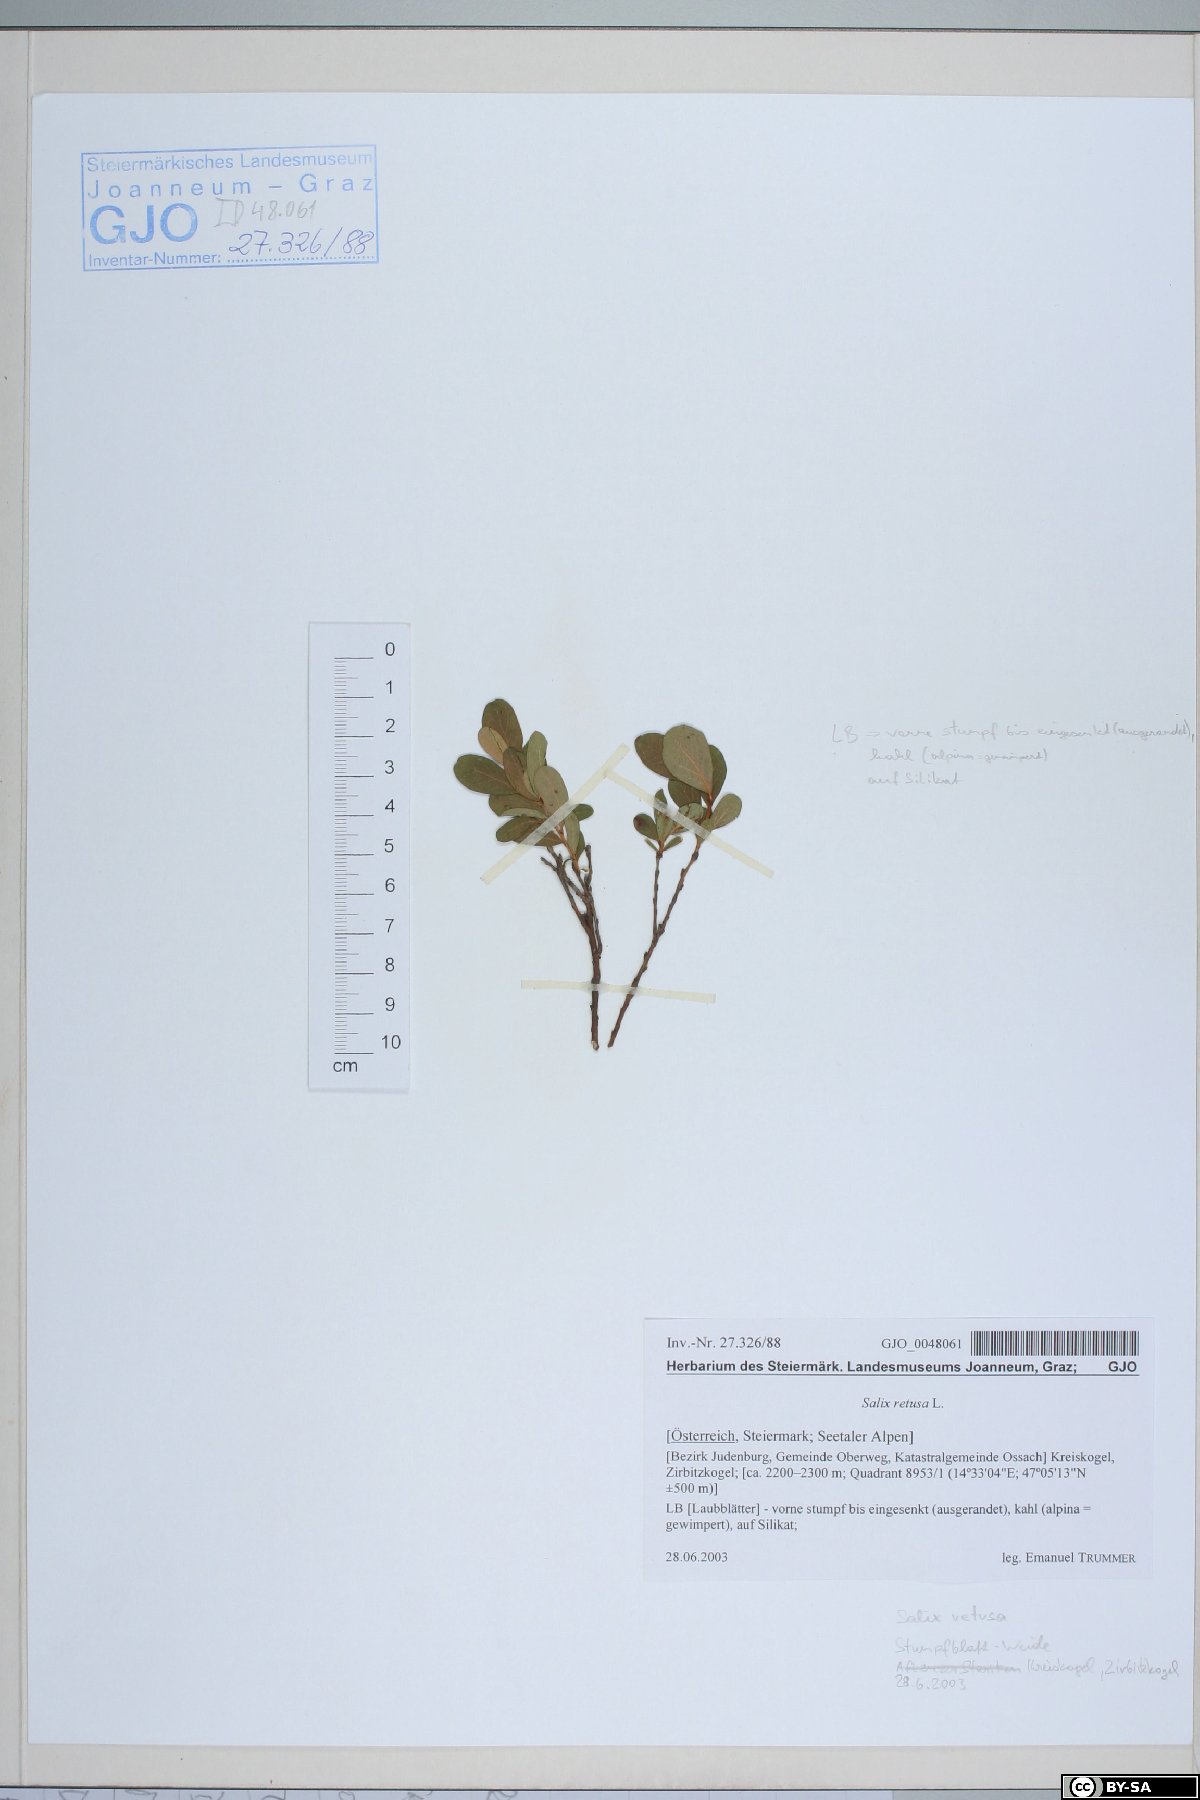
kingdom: Plantae
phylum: Tracheophyta
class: Magnoliopsida
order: Malpighiales
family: Salicaceae
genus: Salix
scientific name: Salix retusa
